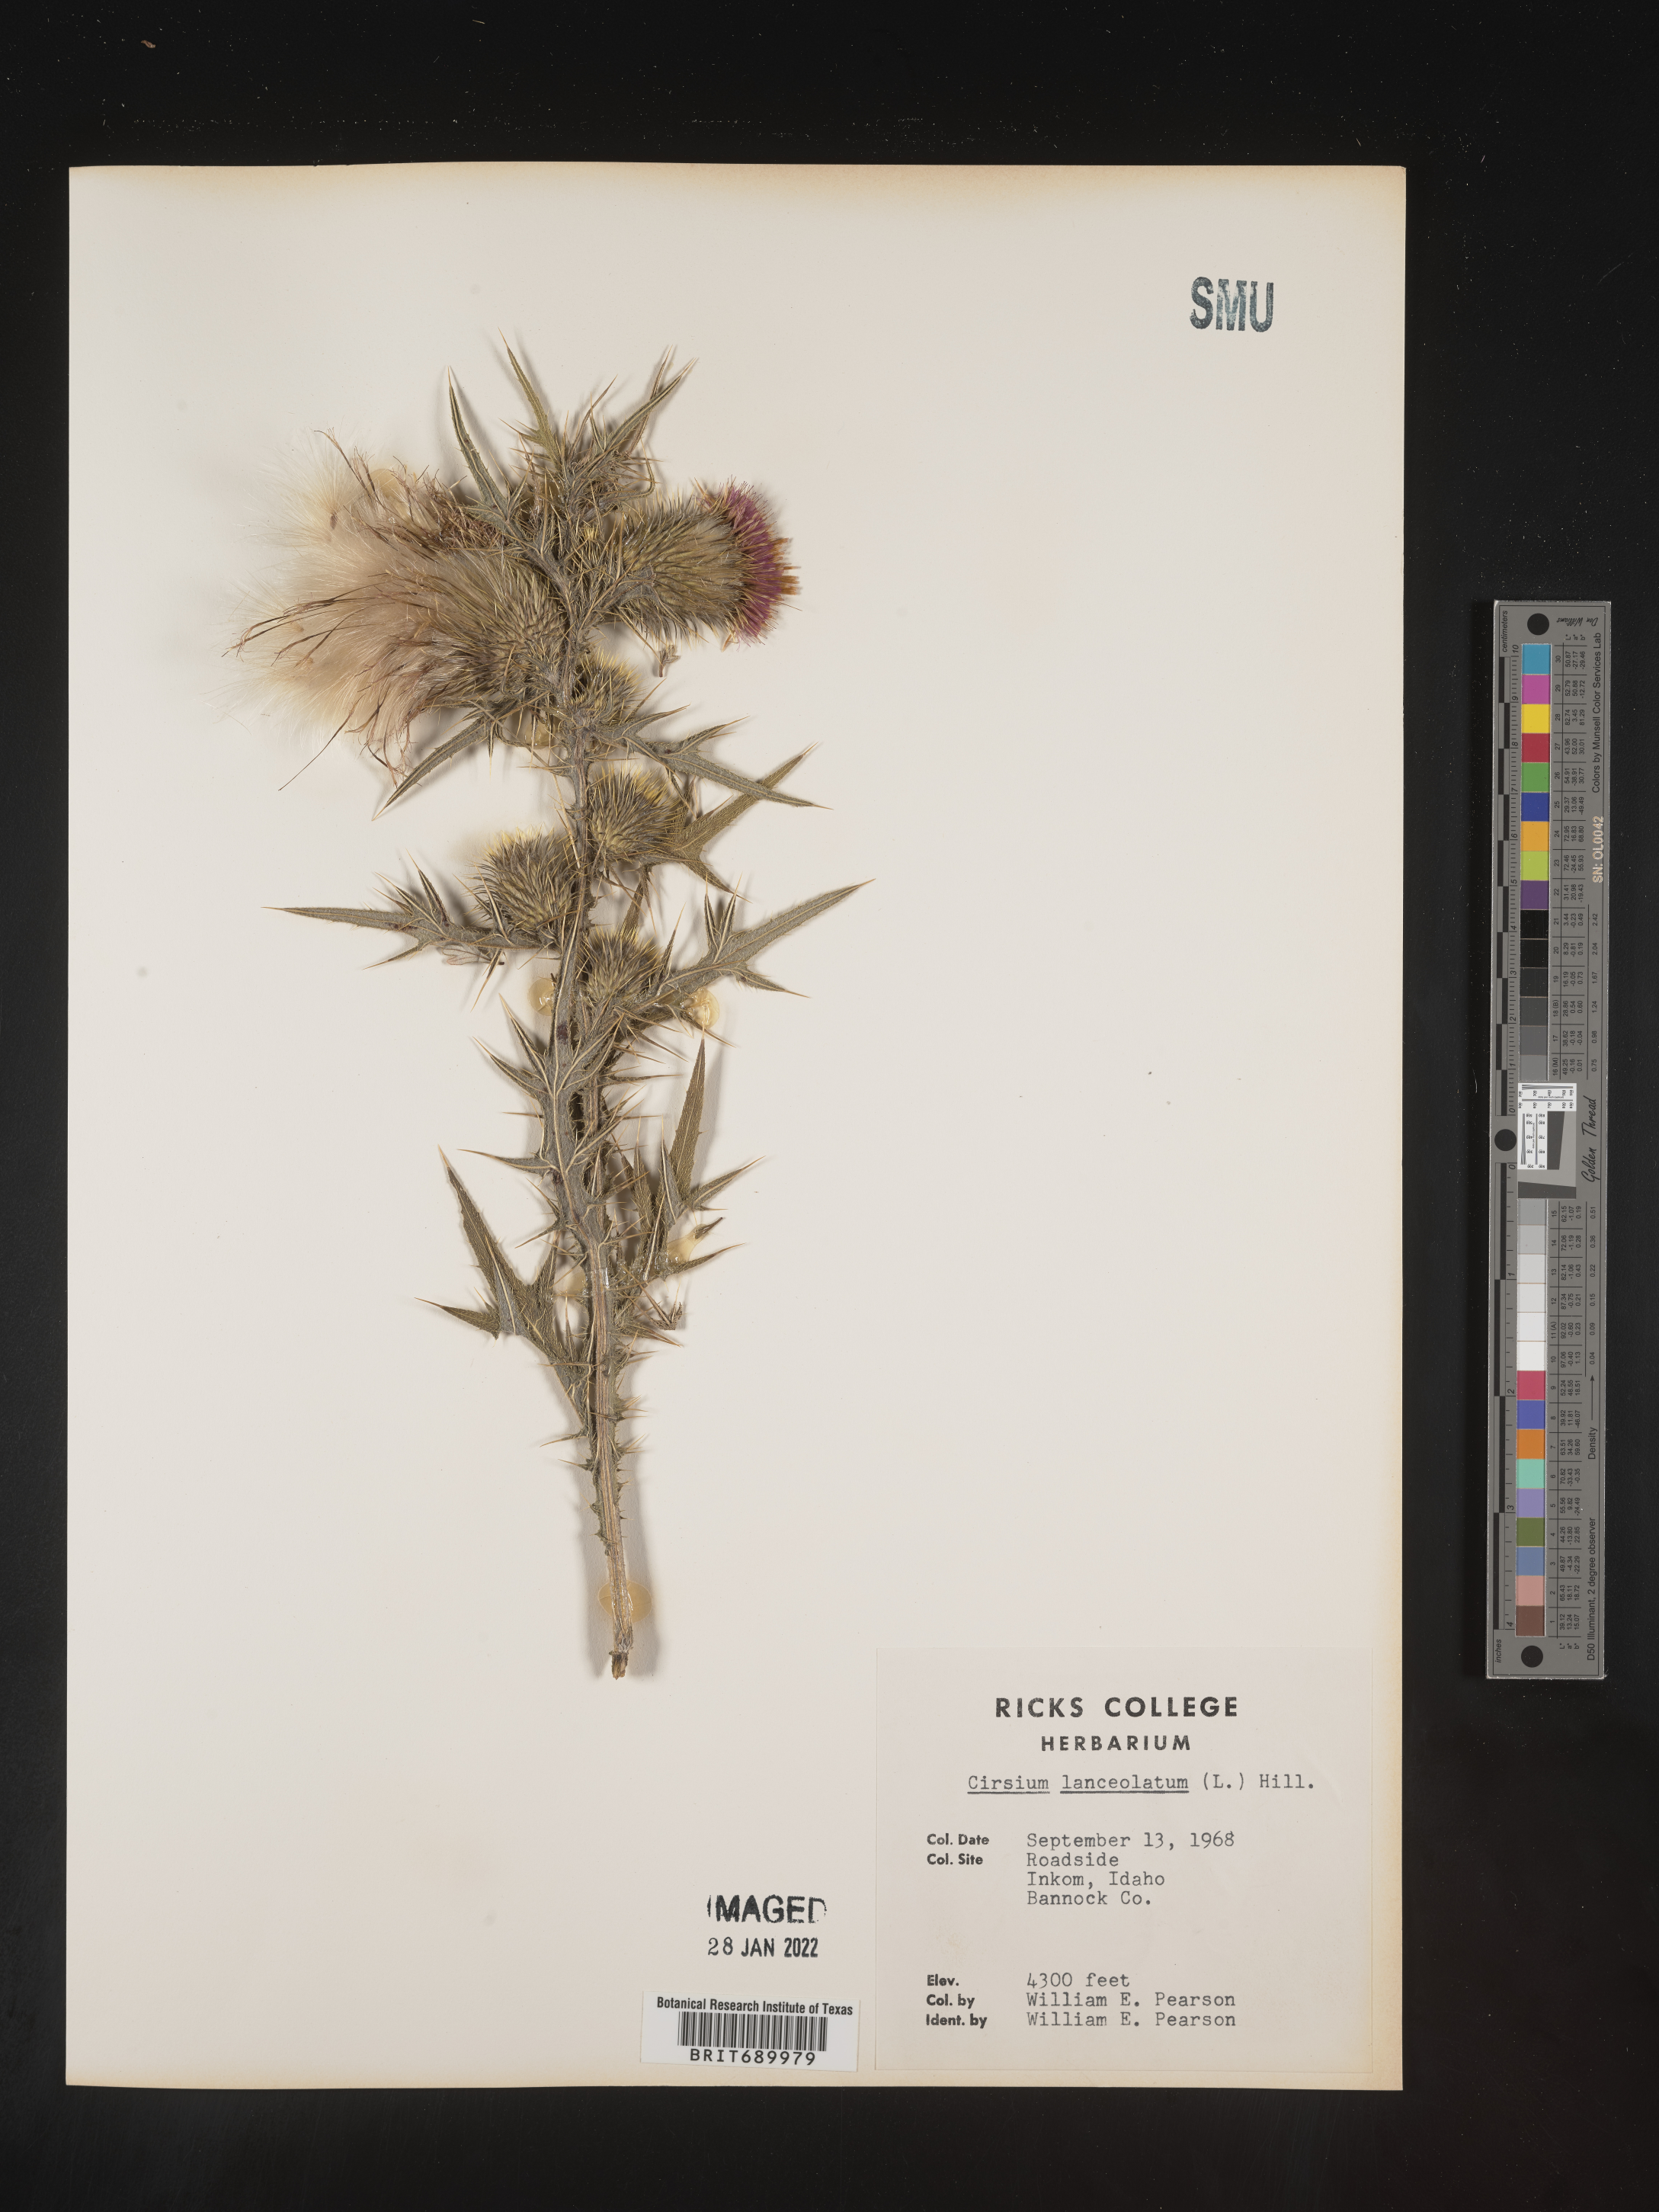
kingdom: Plantae
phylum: Tracheophyta
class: Magnoliopsida
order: Asterales
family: Asteraceae
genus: Cirsium
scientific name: Cirsium vulgare
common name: Bull thistle
